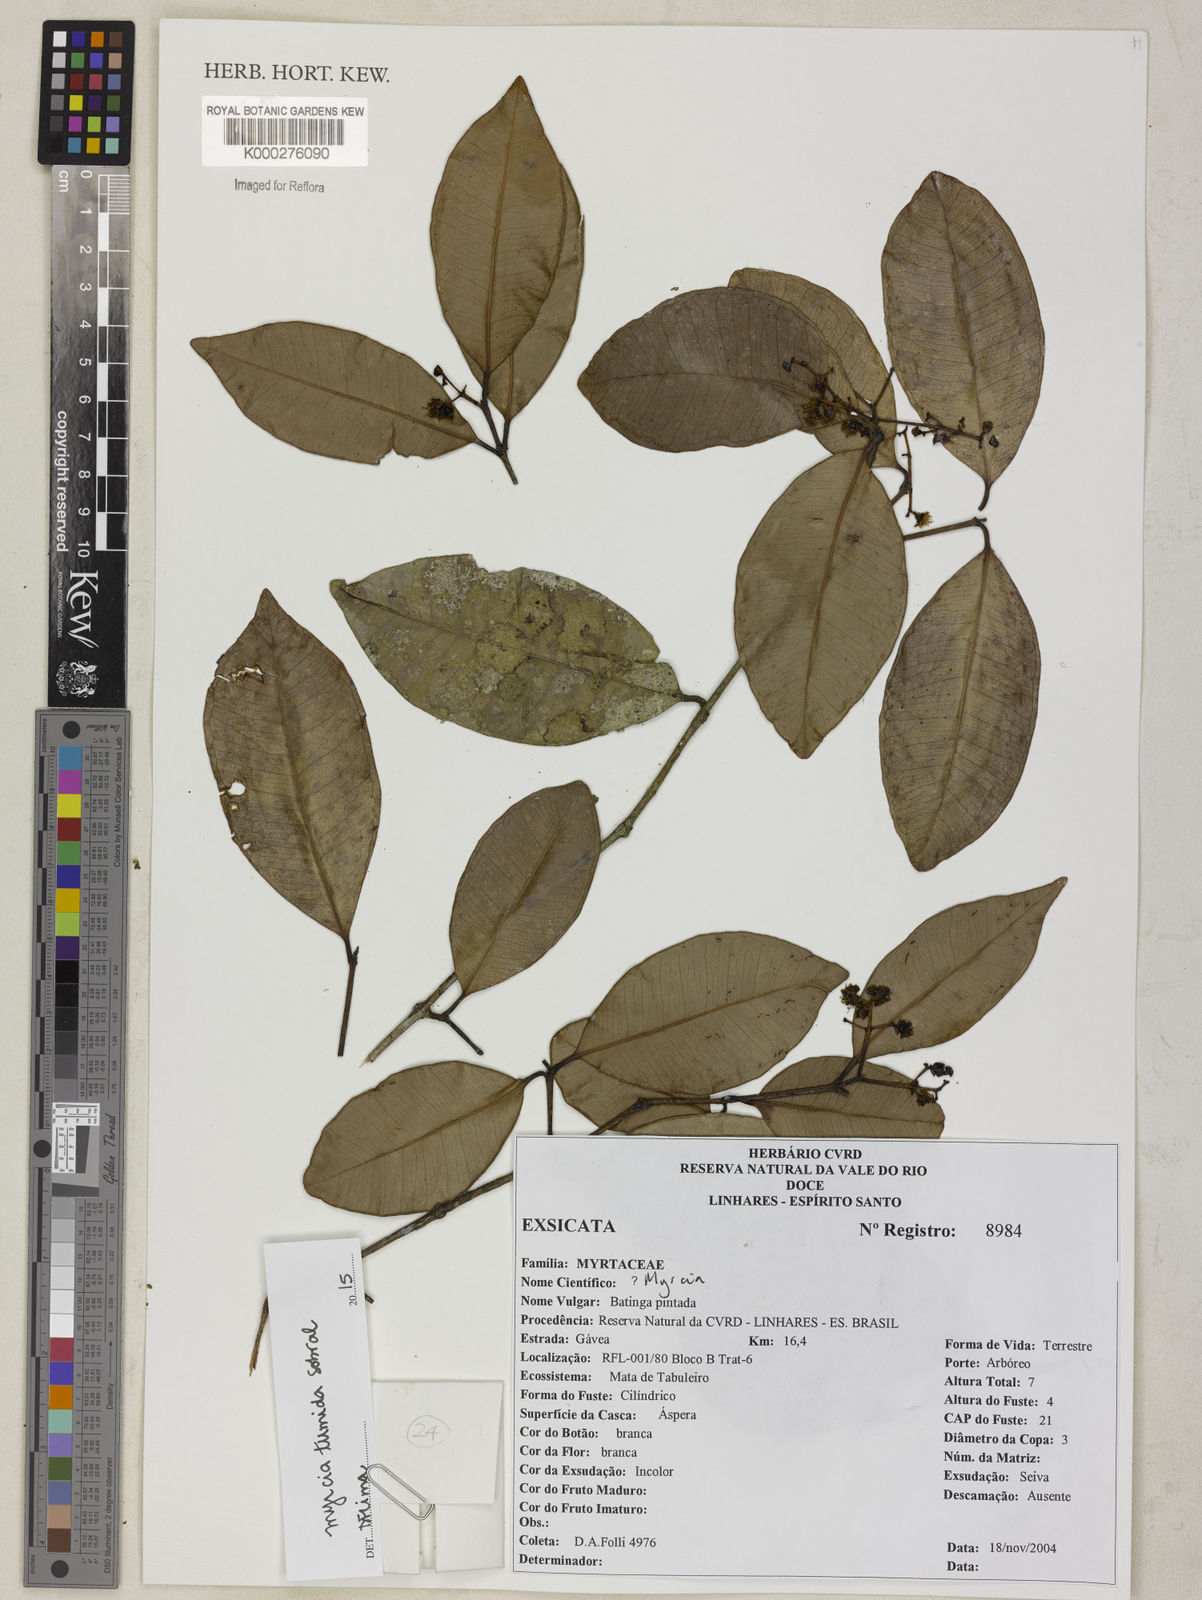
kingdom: Plantae
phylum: Tracheophyta
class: Magnoliopsida
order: Myrtales
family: Myrtaceae
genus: Myrcia
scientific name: Myrcia
